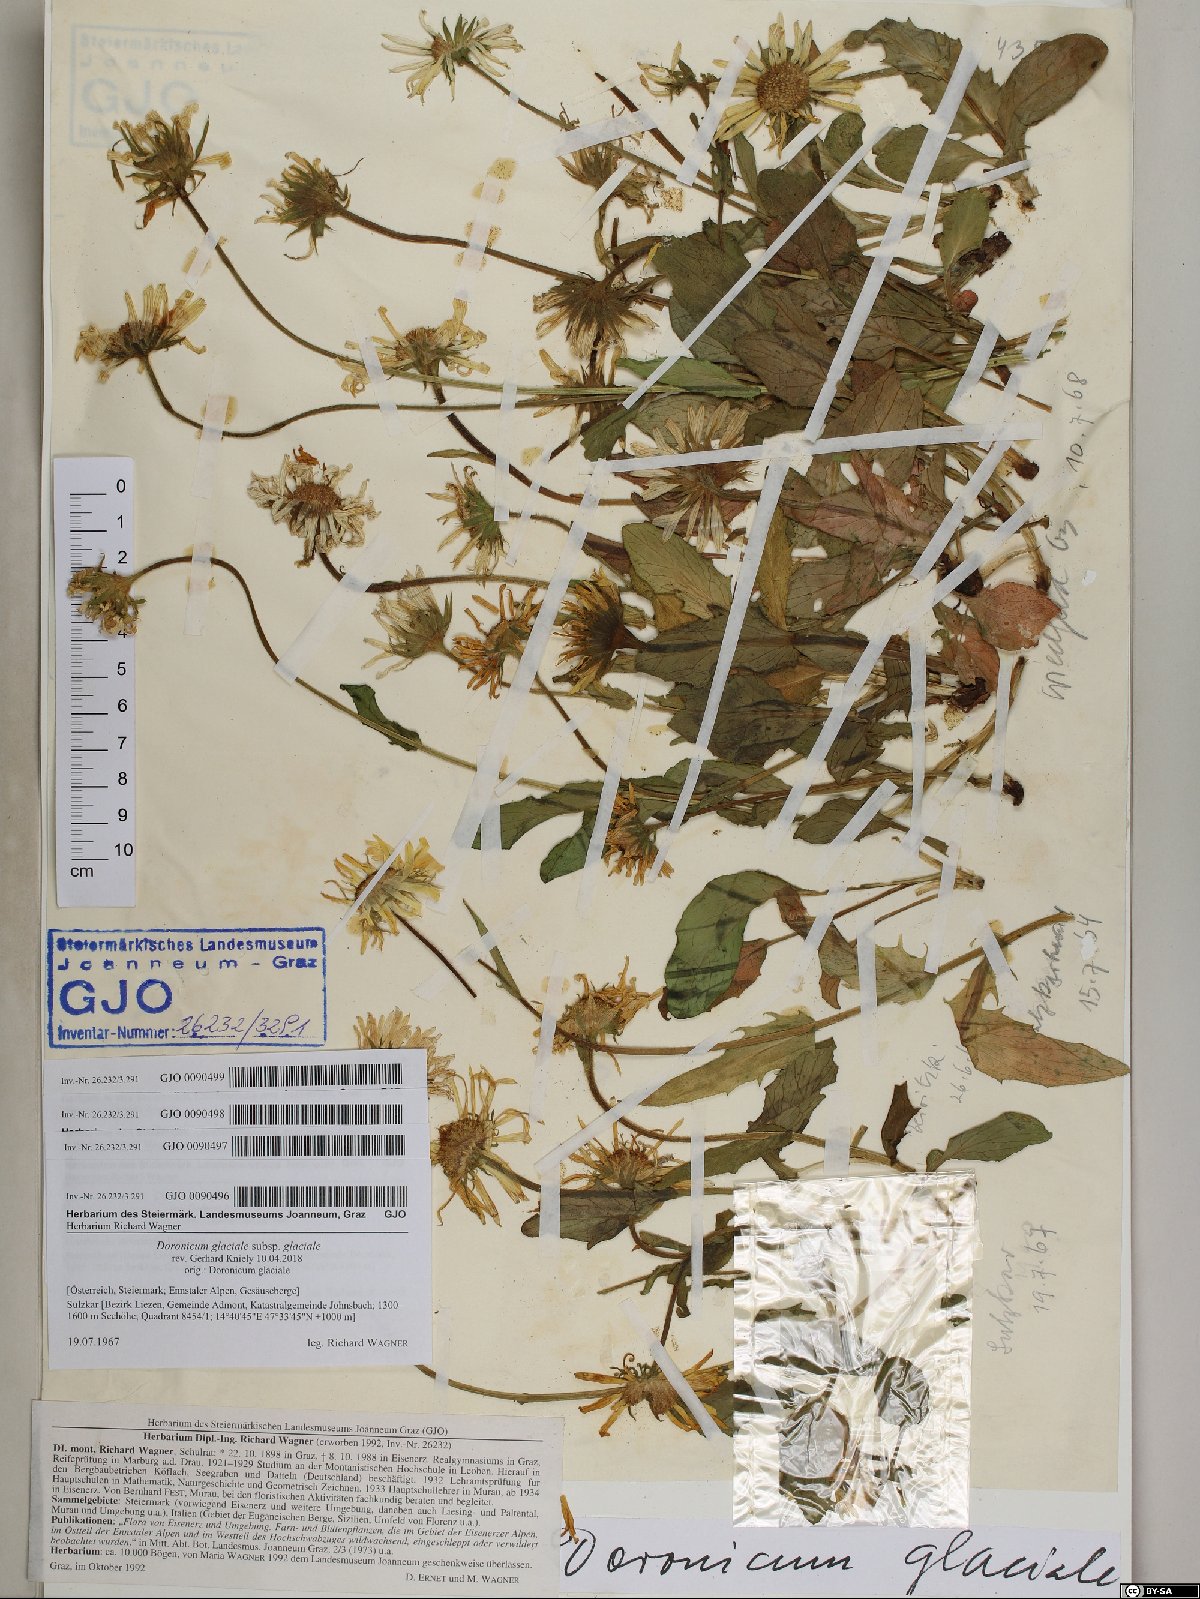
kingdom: Plantae
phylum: Tracheophyta
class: Magnoliopsida
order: Asterales
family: Asteraceae
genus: Doronicum
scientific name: Doronicum glaciale
